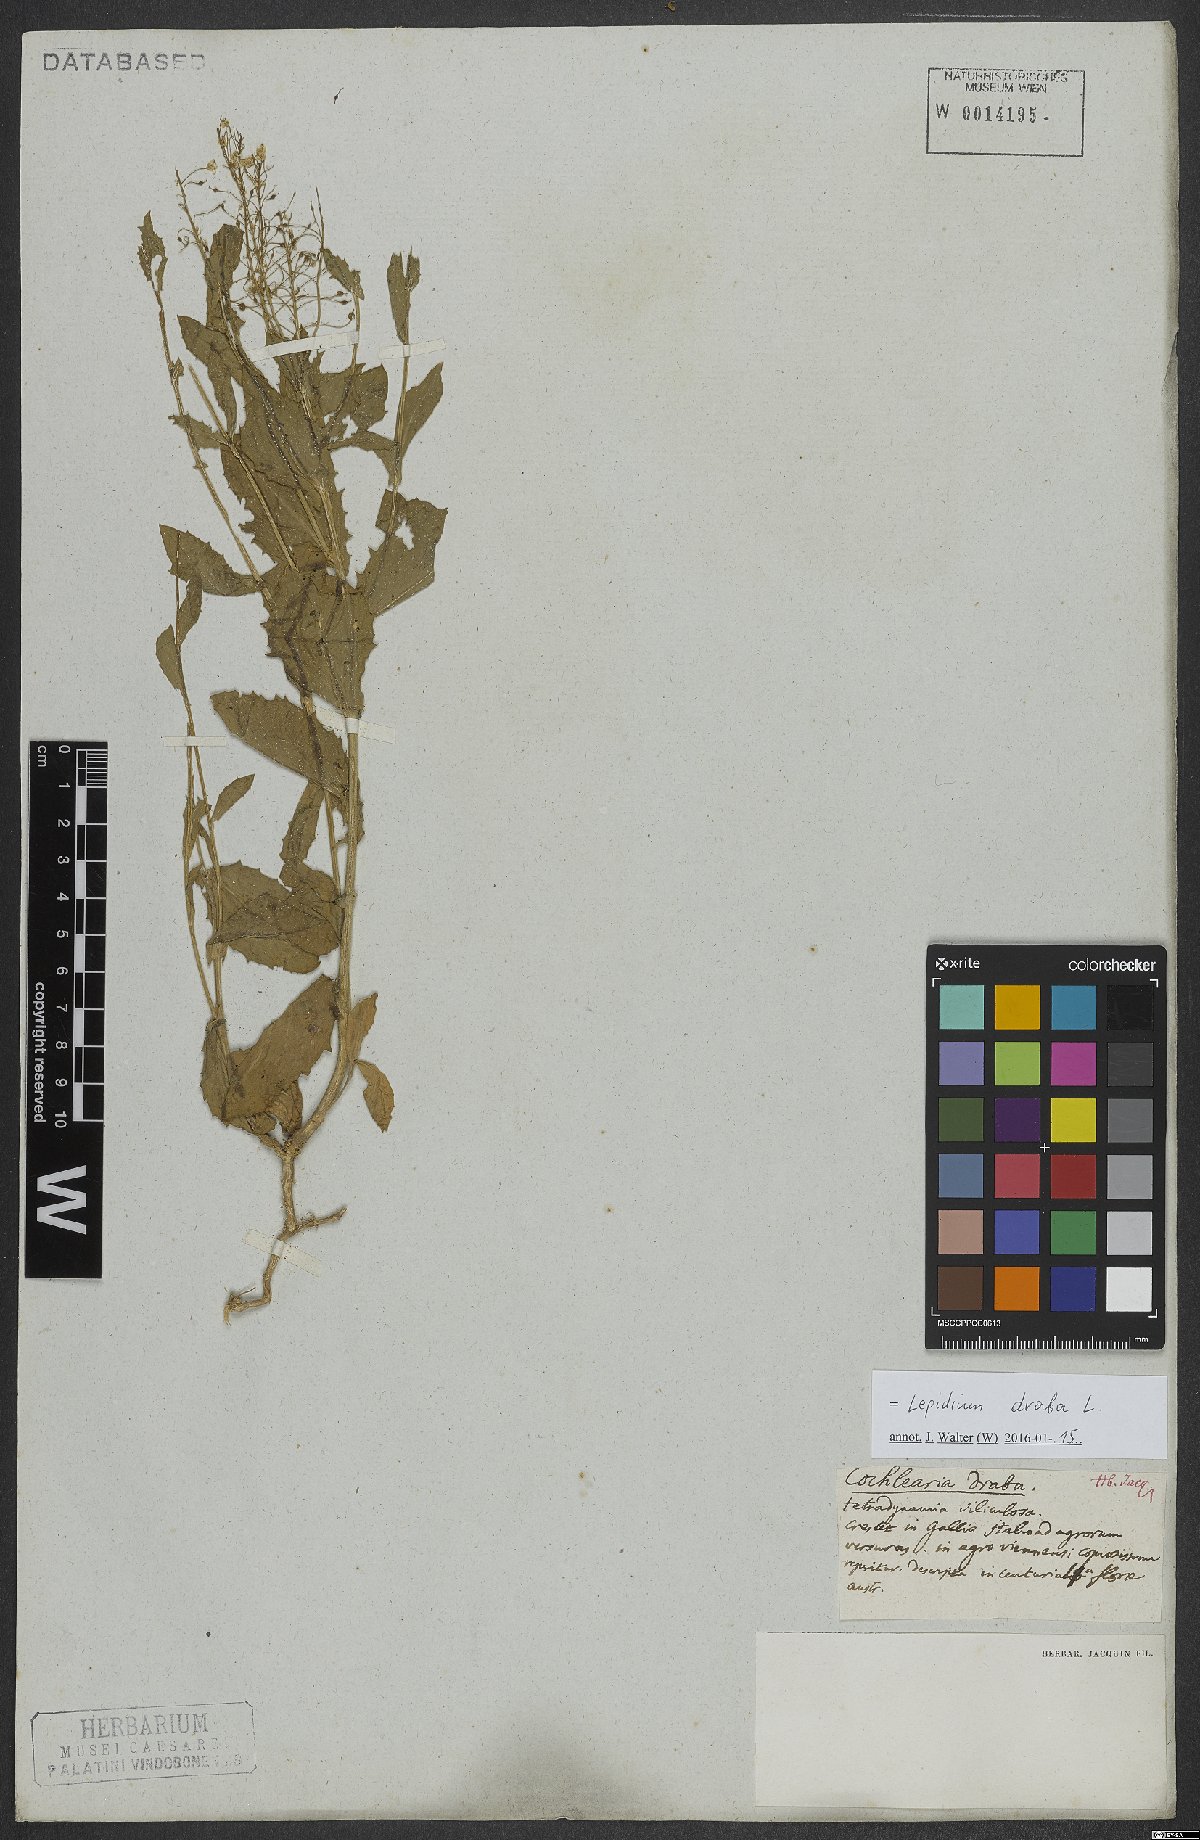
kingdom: Plantae
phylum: Tracheophyta
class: Magnoliopsida
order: Brassicales
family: Brassicaceae
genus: Lepidium
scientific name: Lepidium draba
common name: Hoary cress
